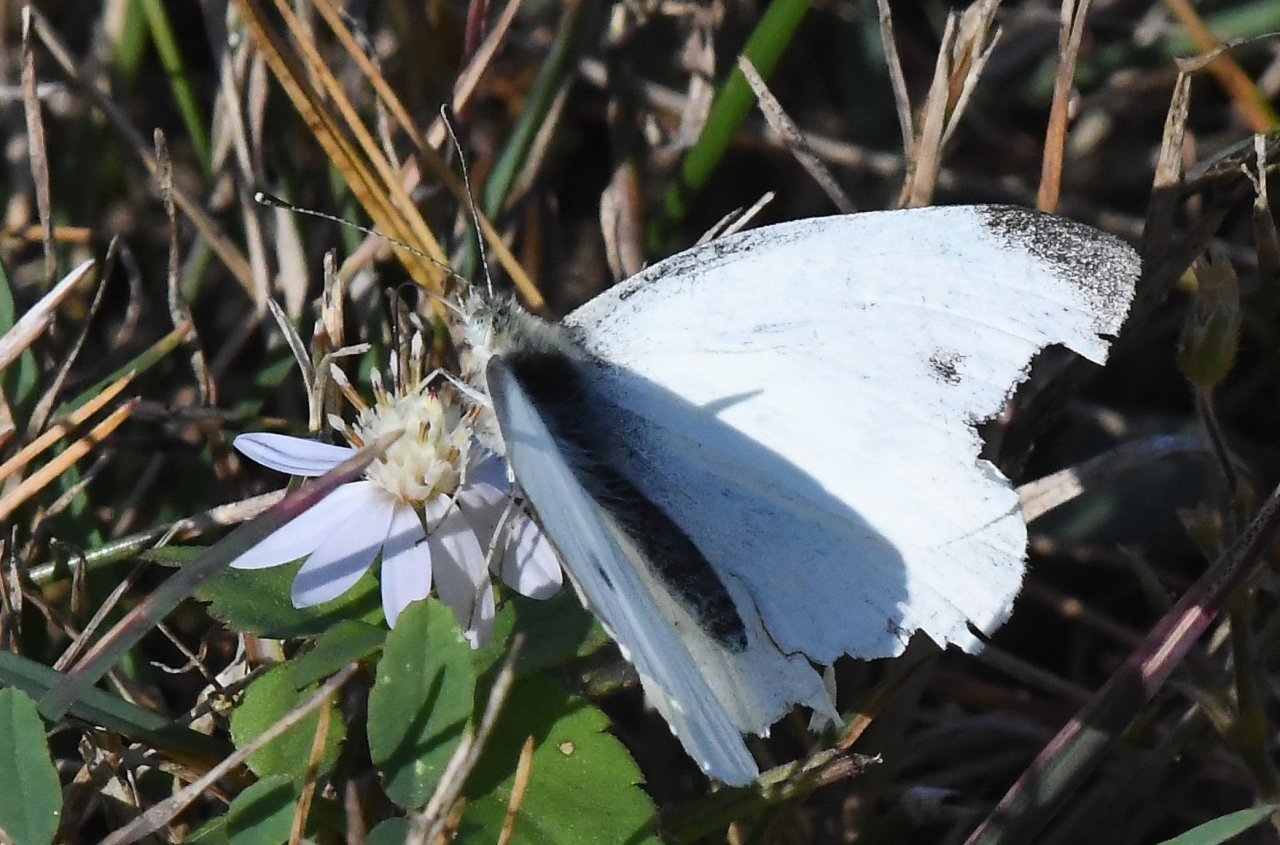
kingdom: Animalia
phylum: Arthropoda
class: Insecta
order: Lepidoptera
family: Pieridae
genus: Pieris
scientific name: Pieris rapae
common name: Cabbage White
